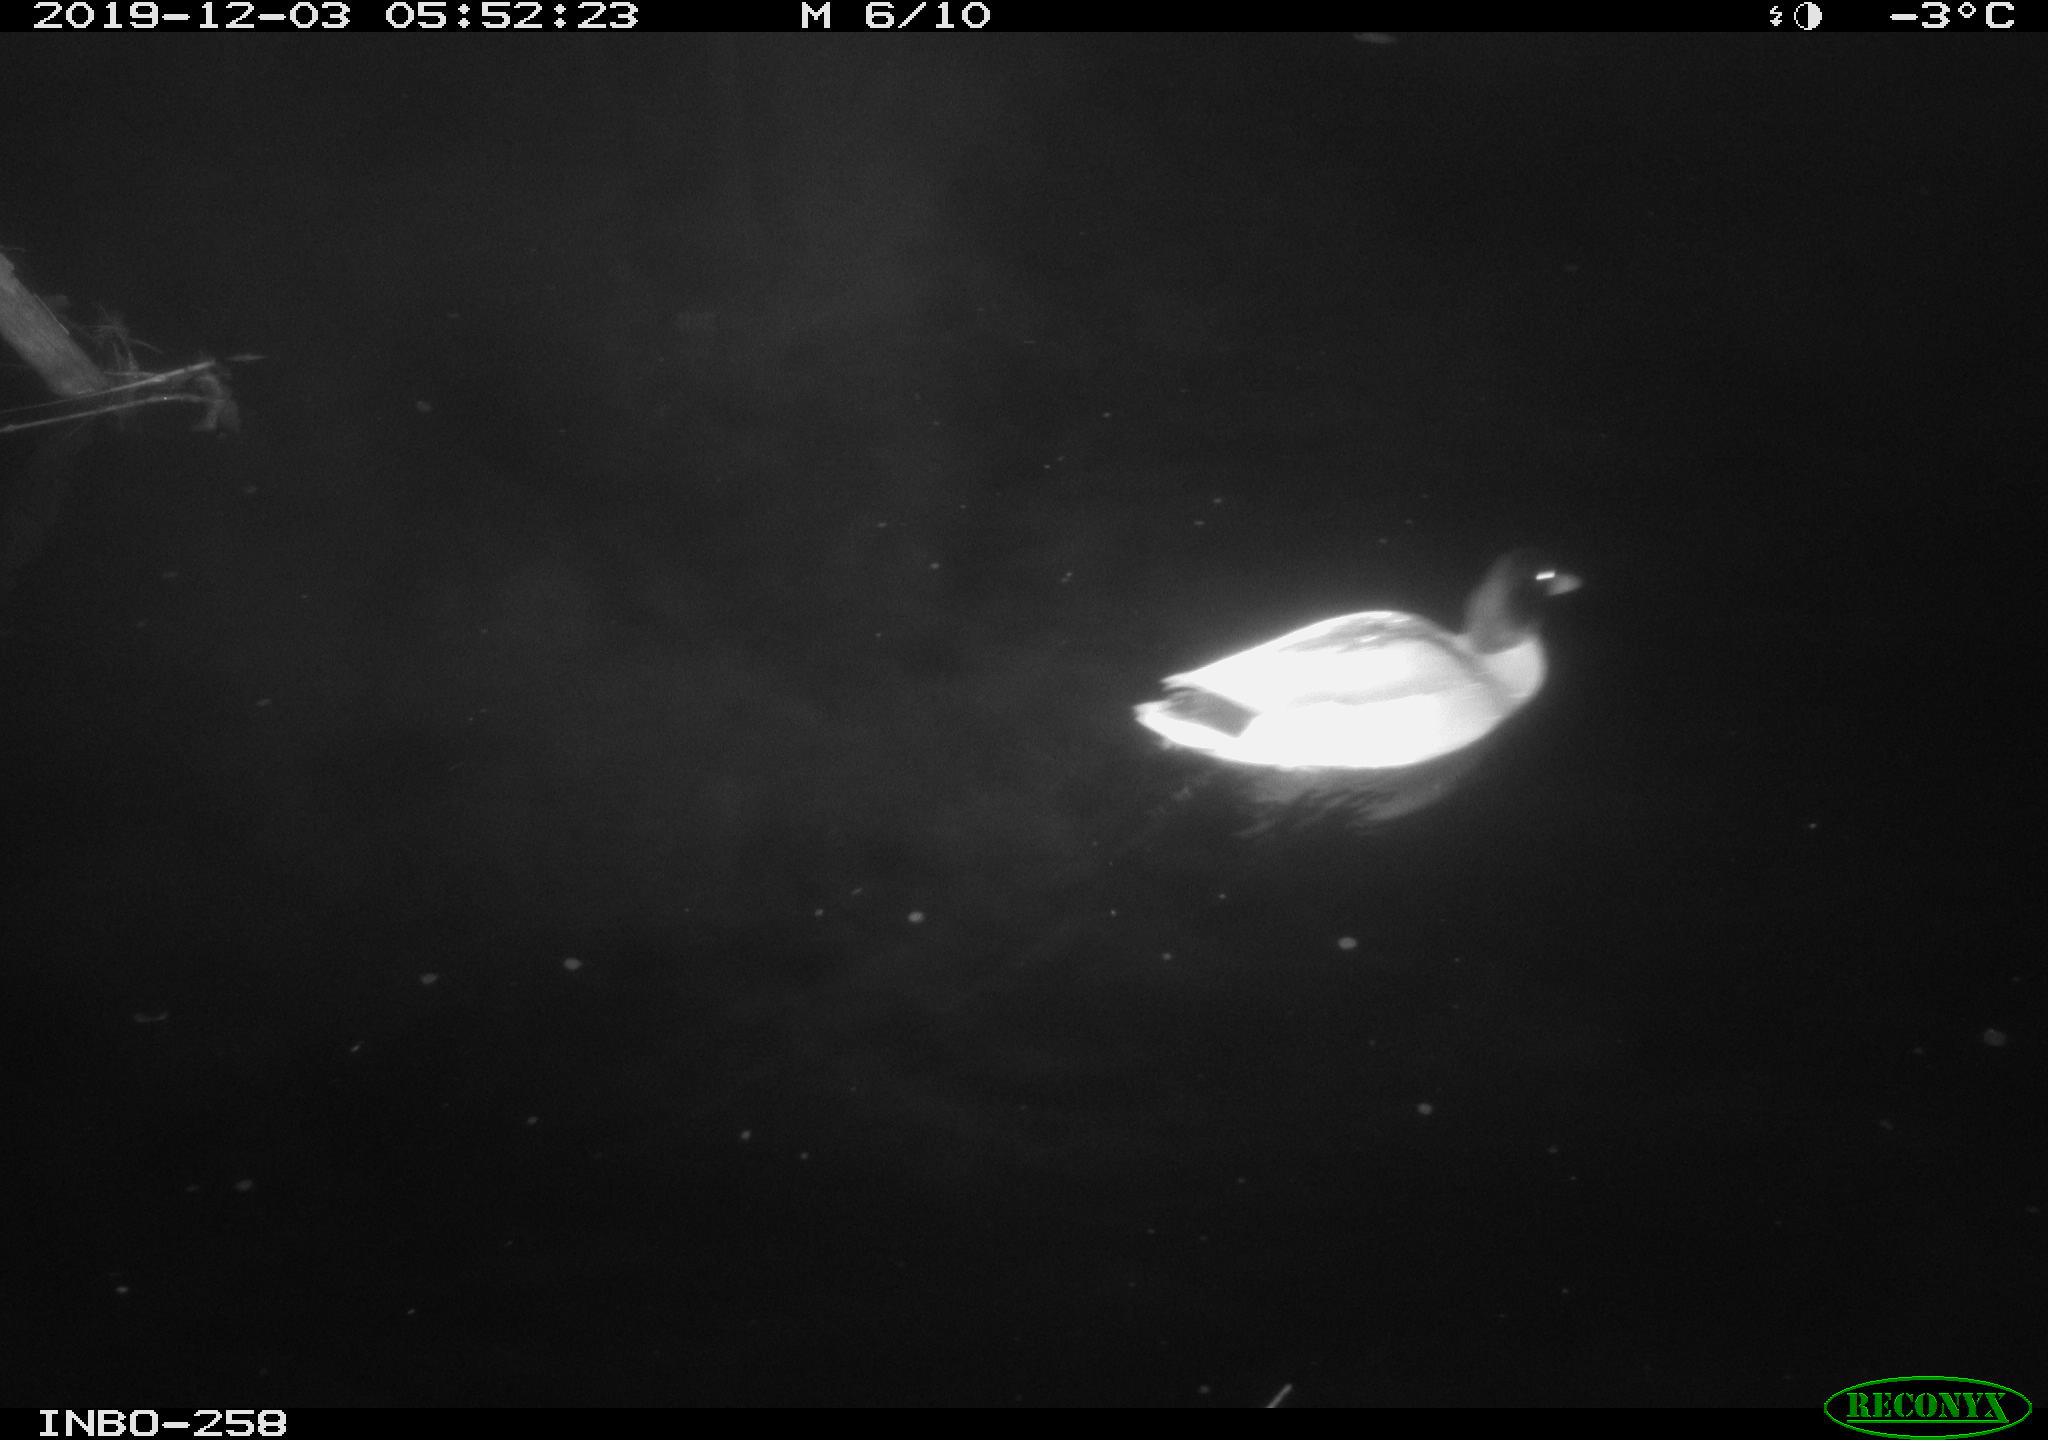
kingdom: Animalia
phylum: Chordata
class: Aves
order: Anseriformes
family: Anatidae
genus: Anas
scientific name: Anas platyrhynchos
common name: Mallard
